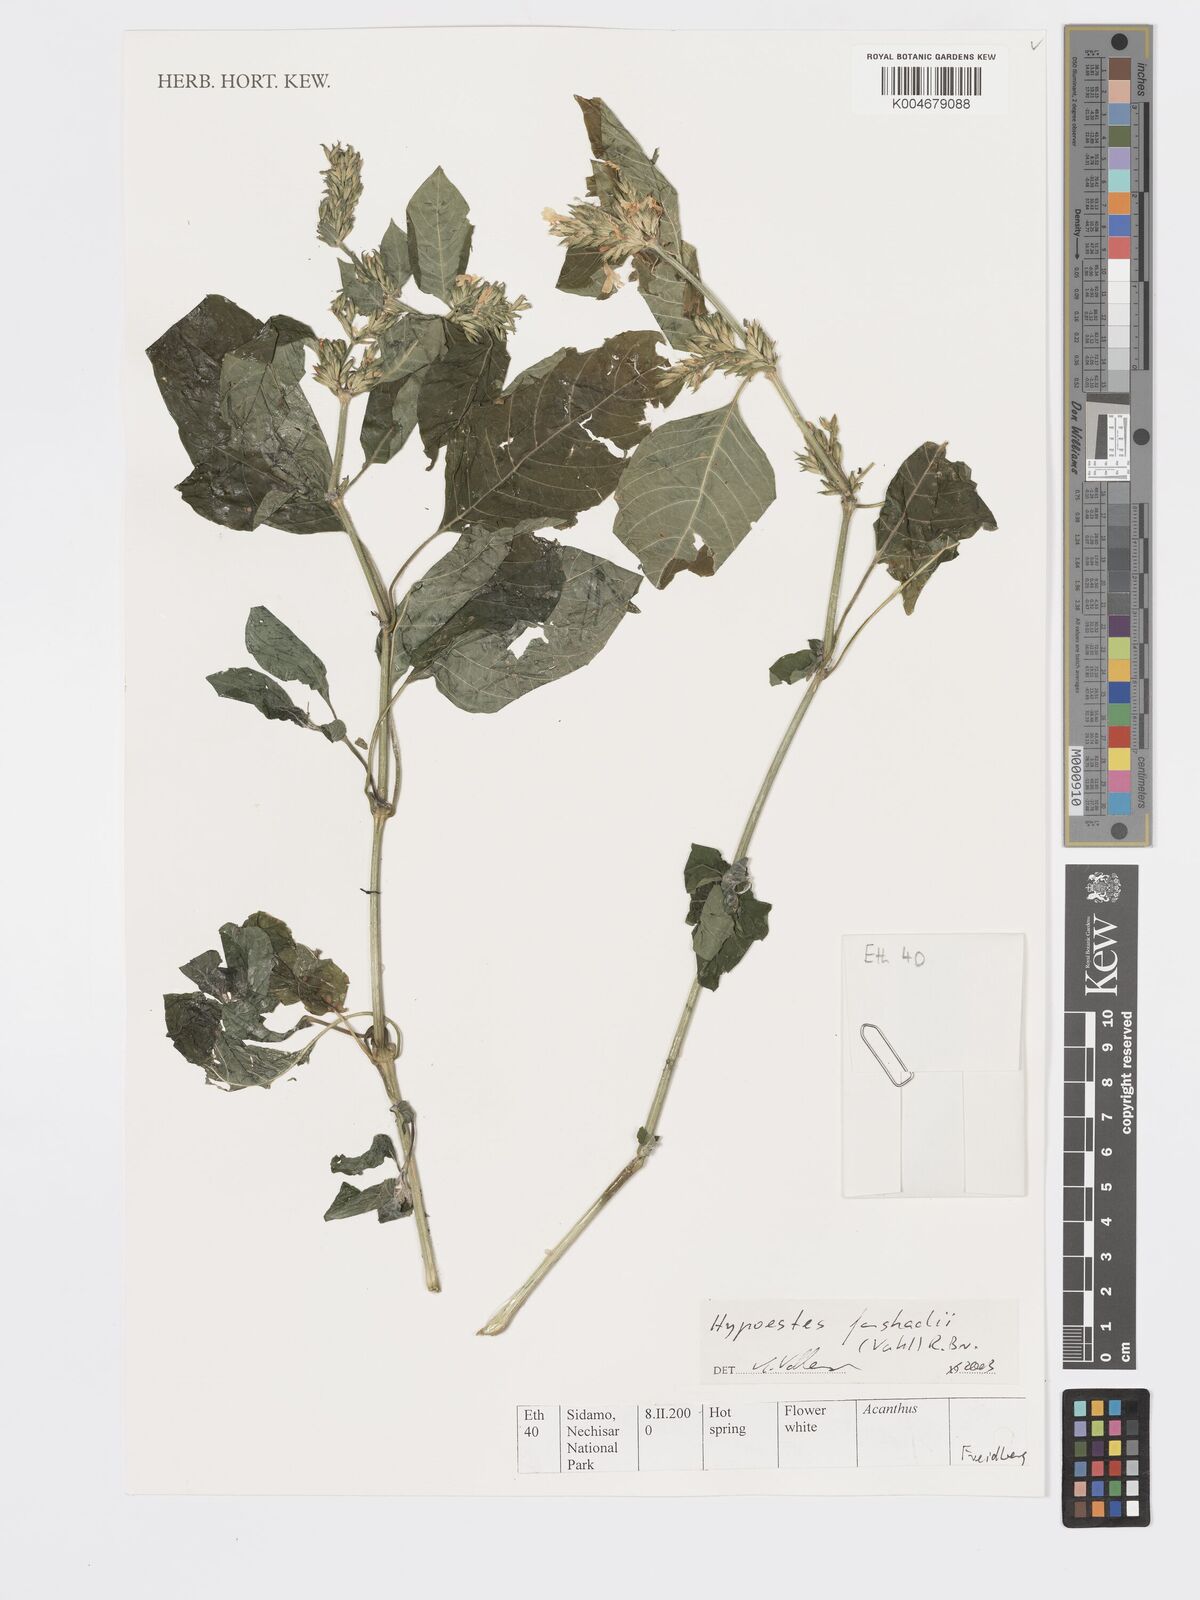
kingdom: Plantae
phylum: Tracheophyta
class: Magnoliopsida
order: Lamiales
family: Acanthaceae
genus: Hypoestes
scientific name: Hypoestes forskaolii
